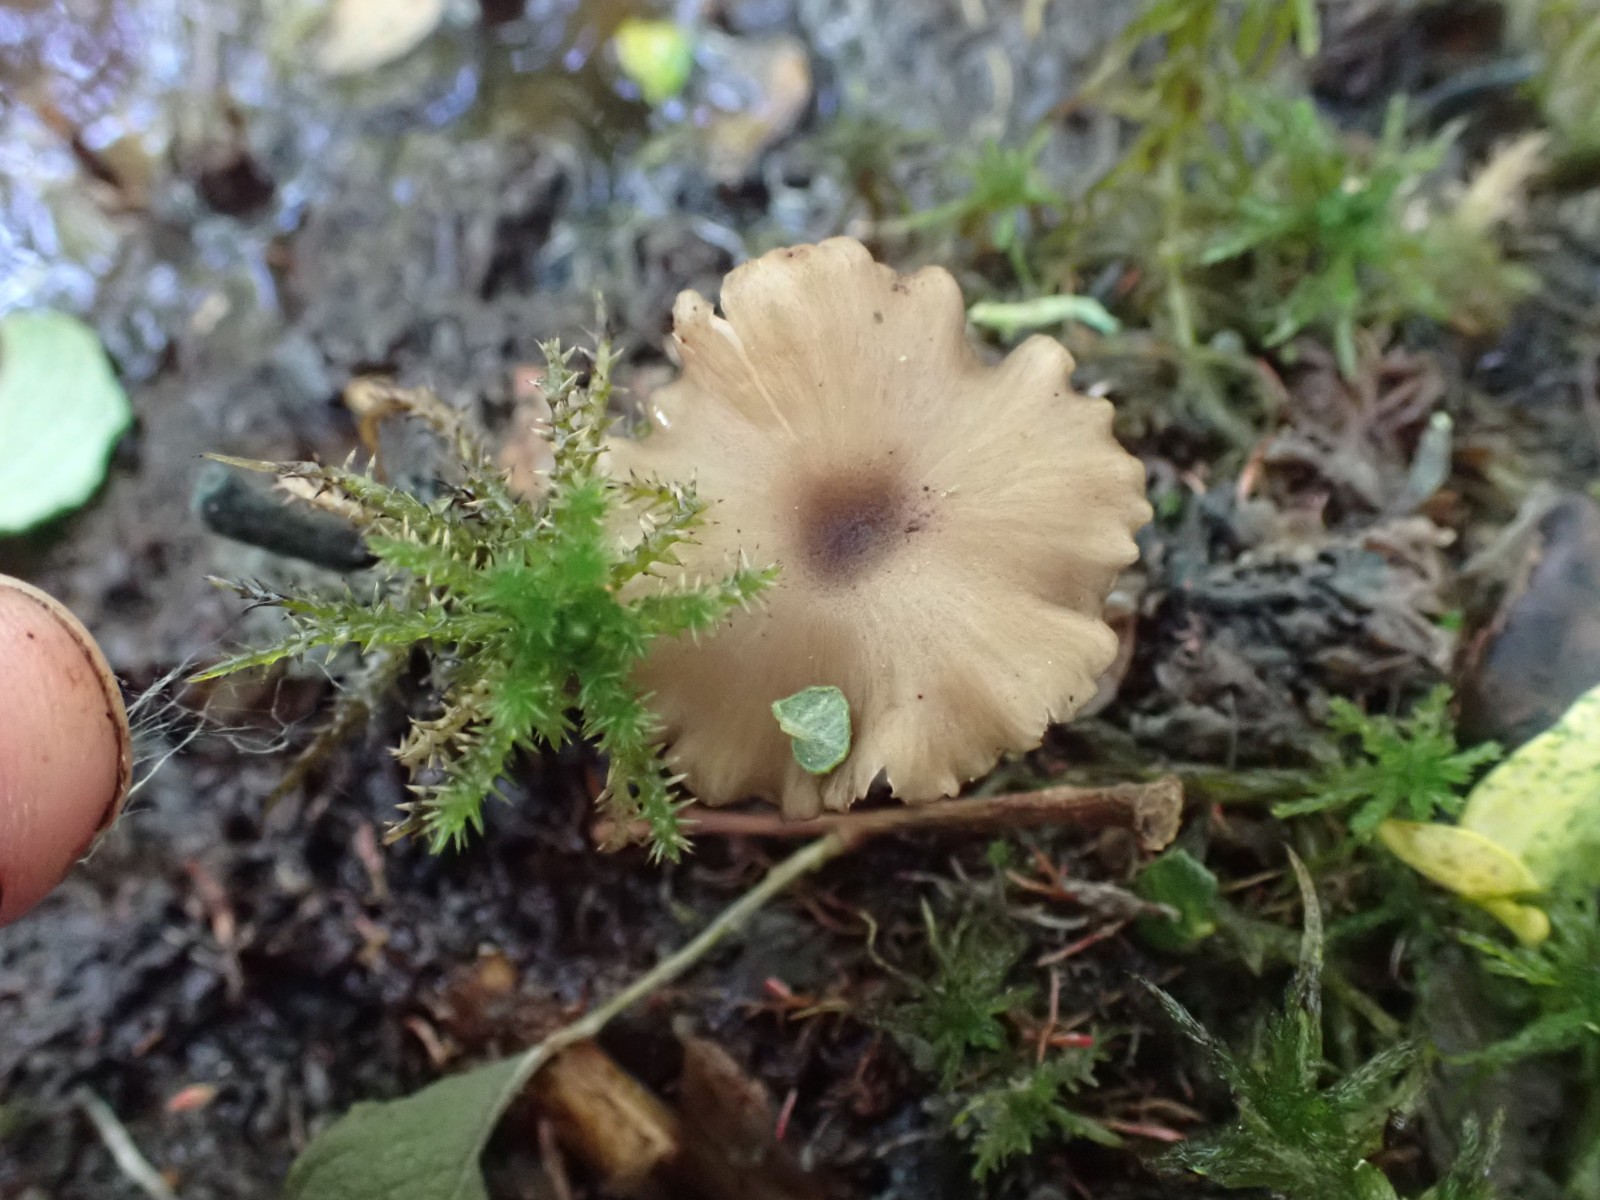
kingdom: Fungi
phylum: Basidiomycota
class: Agaricomycetes
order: Agaricales
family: Entolomataceae
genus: Entoloma
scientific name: Entoloma politum
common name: poleret rødblad
